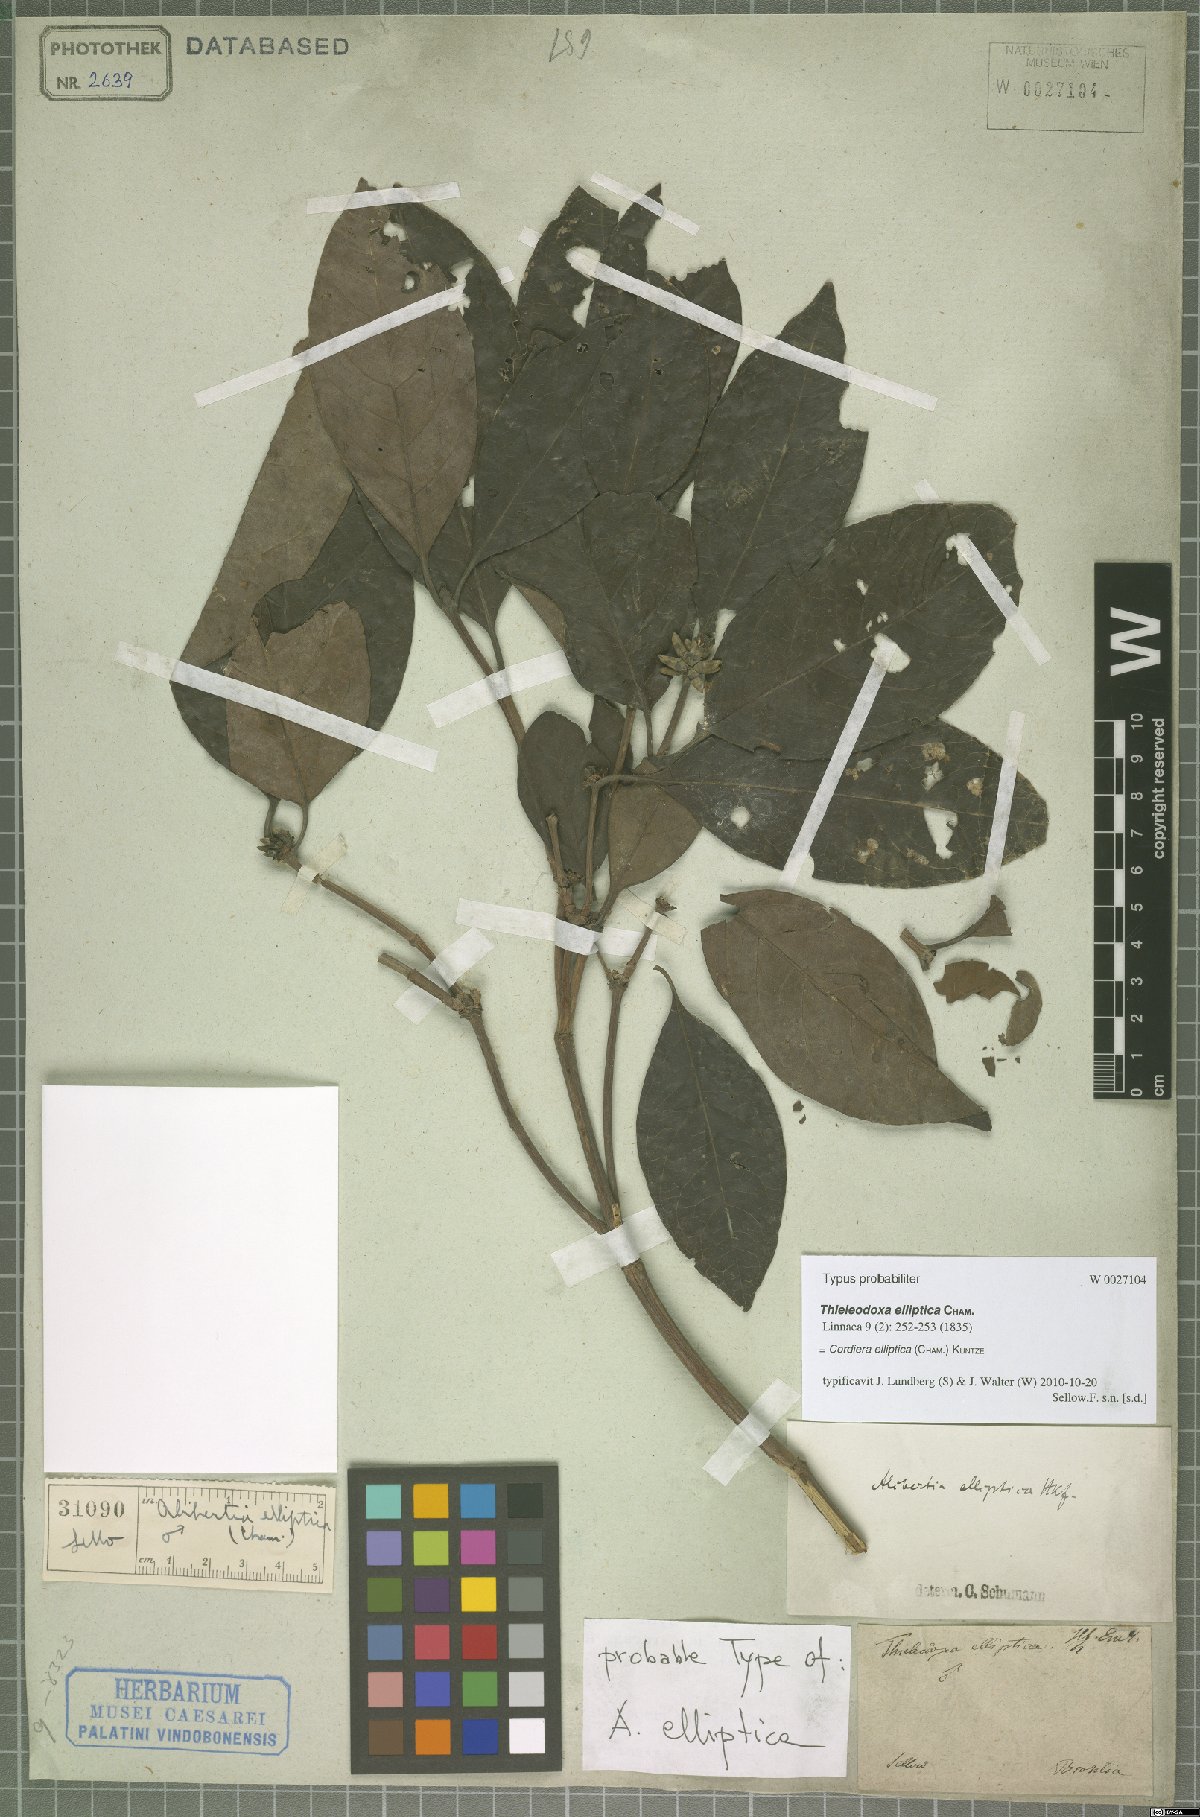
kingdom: Plantae
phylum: Tracheophyta
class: Magnoliopsida
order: Gentianales
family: Rubiaceae
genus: Cordiera
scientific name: Cordiera elliptica
